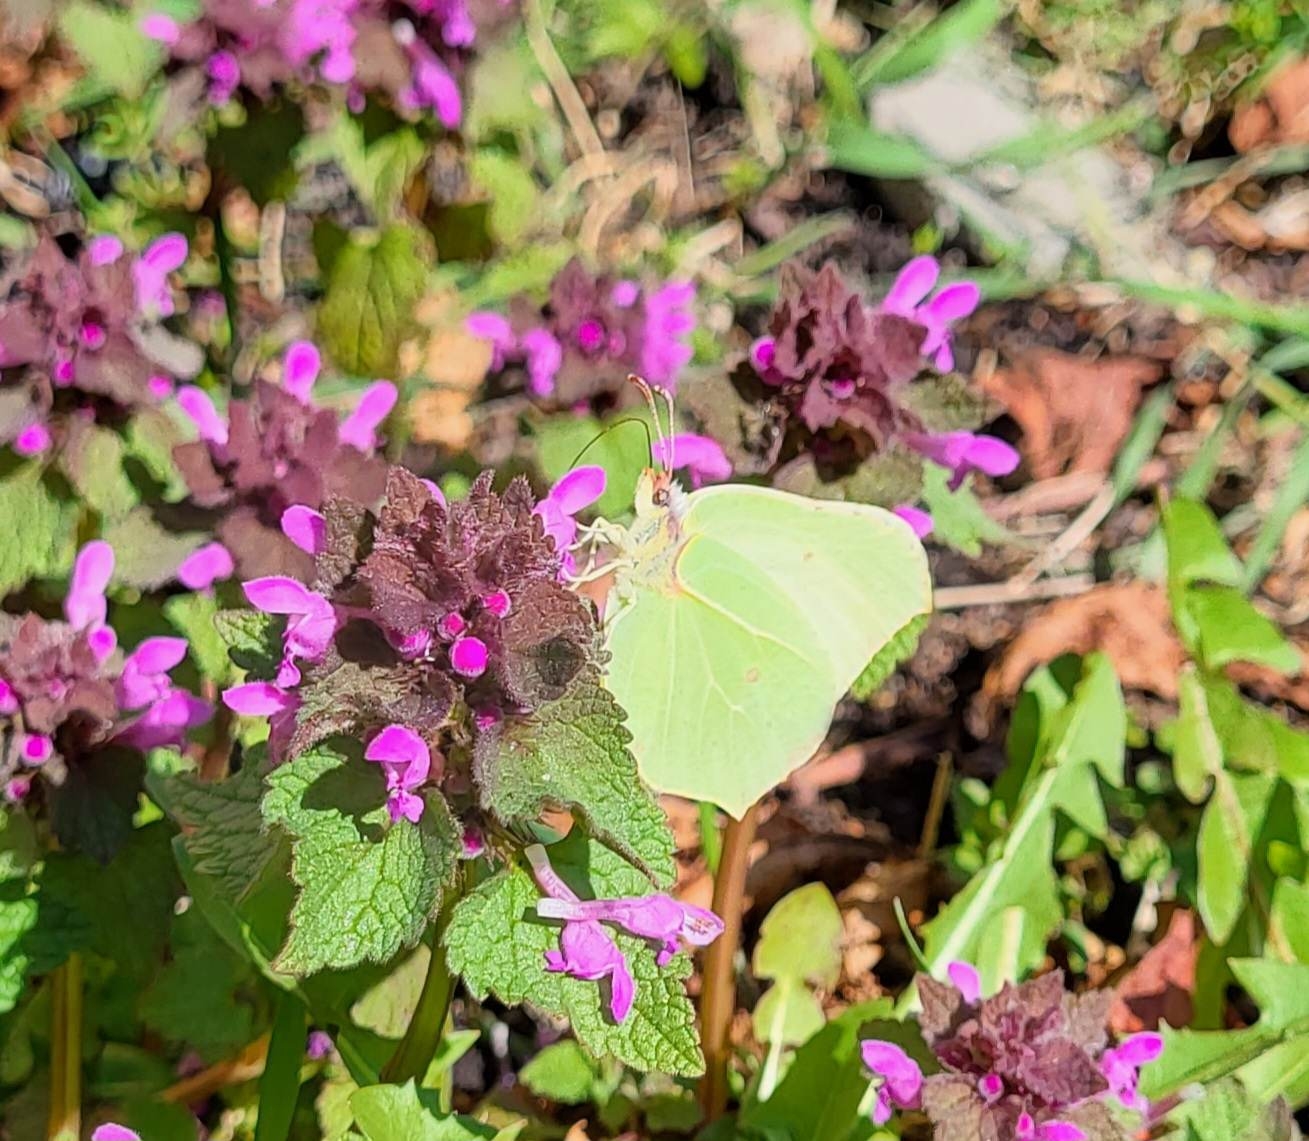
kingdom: Animalia
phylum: Arthropoda
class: Insecta
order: Lepidoptera
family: Pieridae
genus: Gonepteryx
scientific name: Gonepteryx rhamni
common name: Citronsommerfugl
